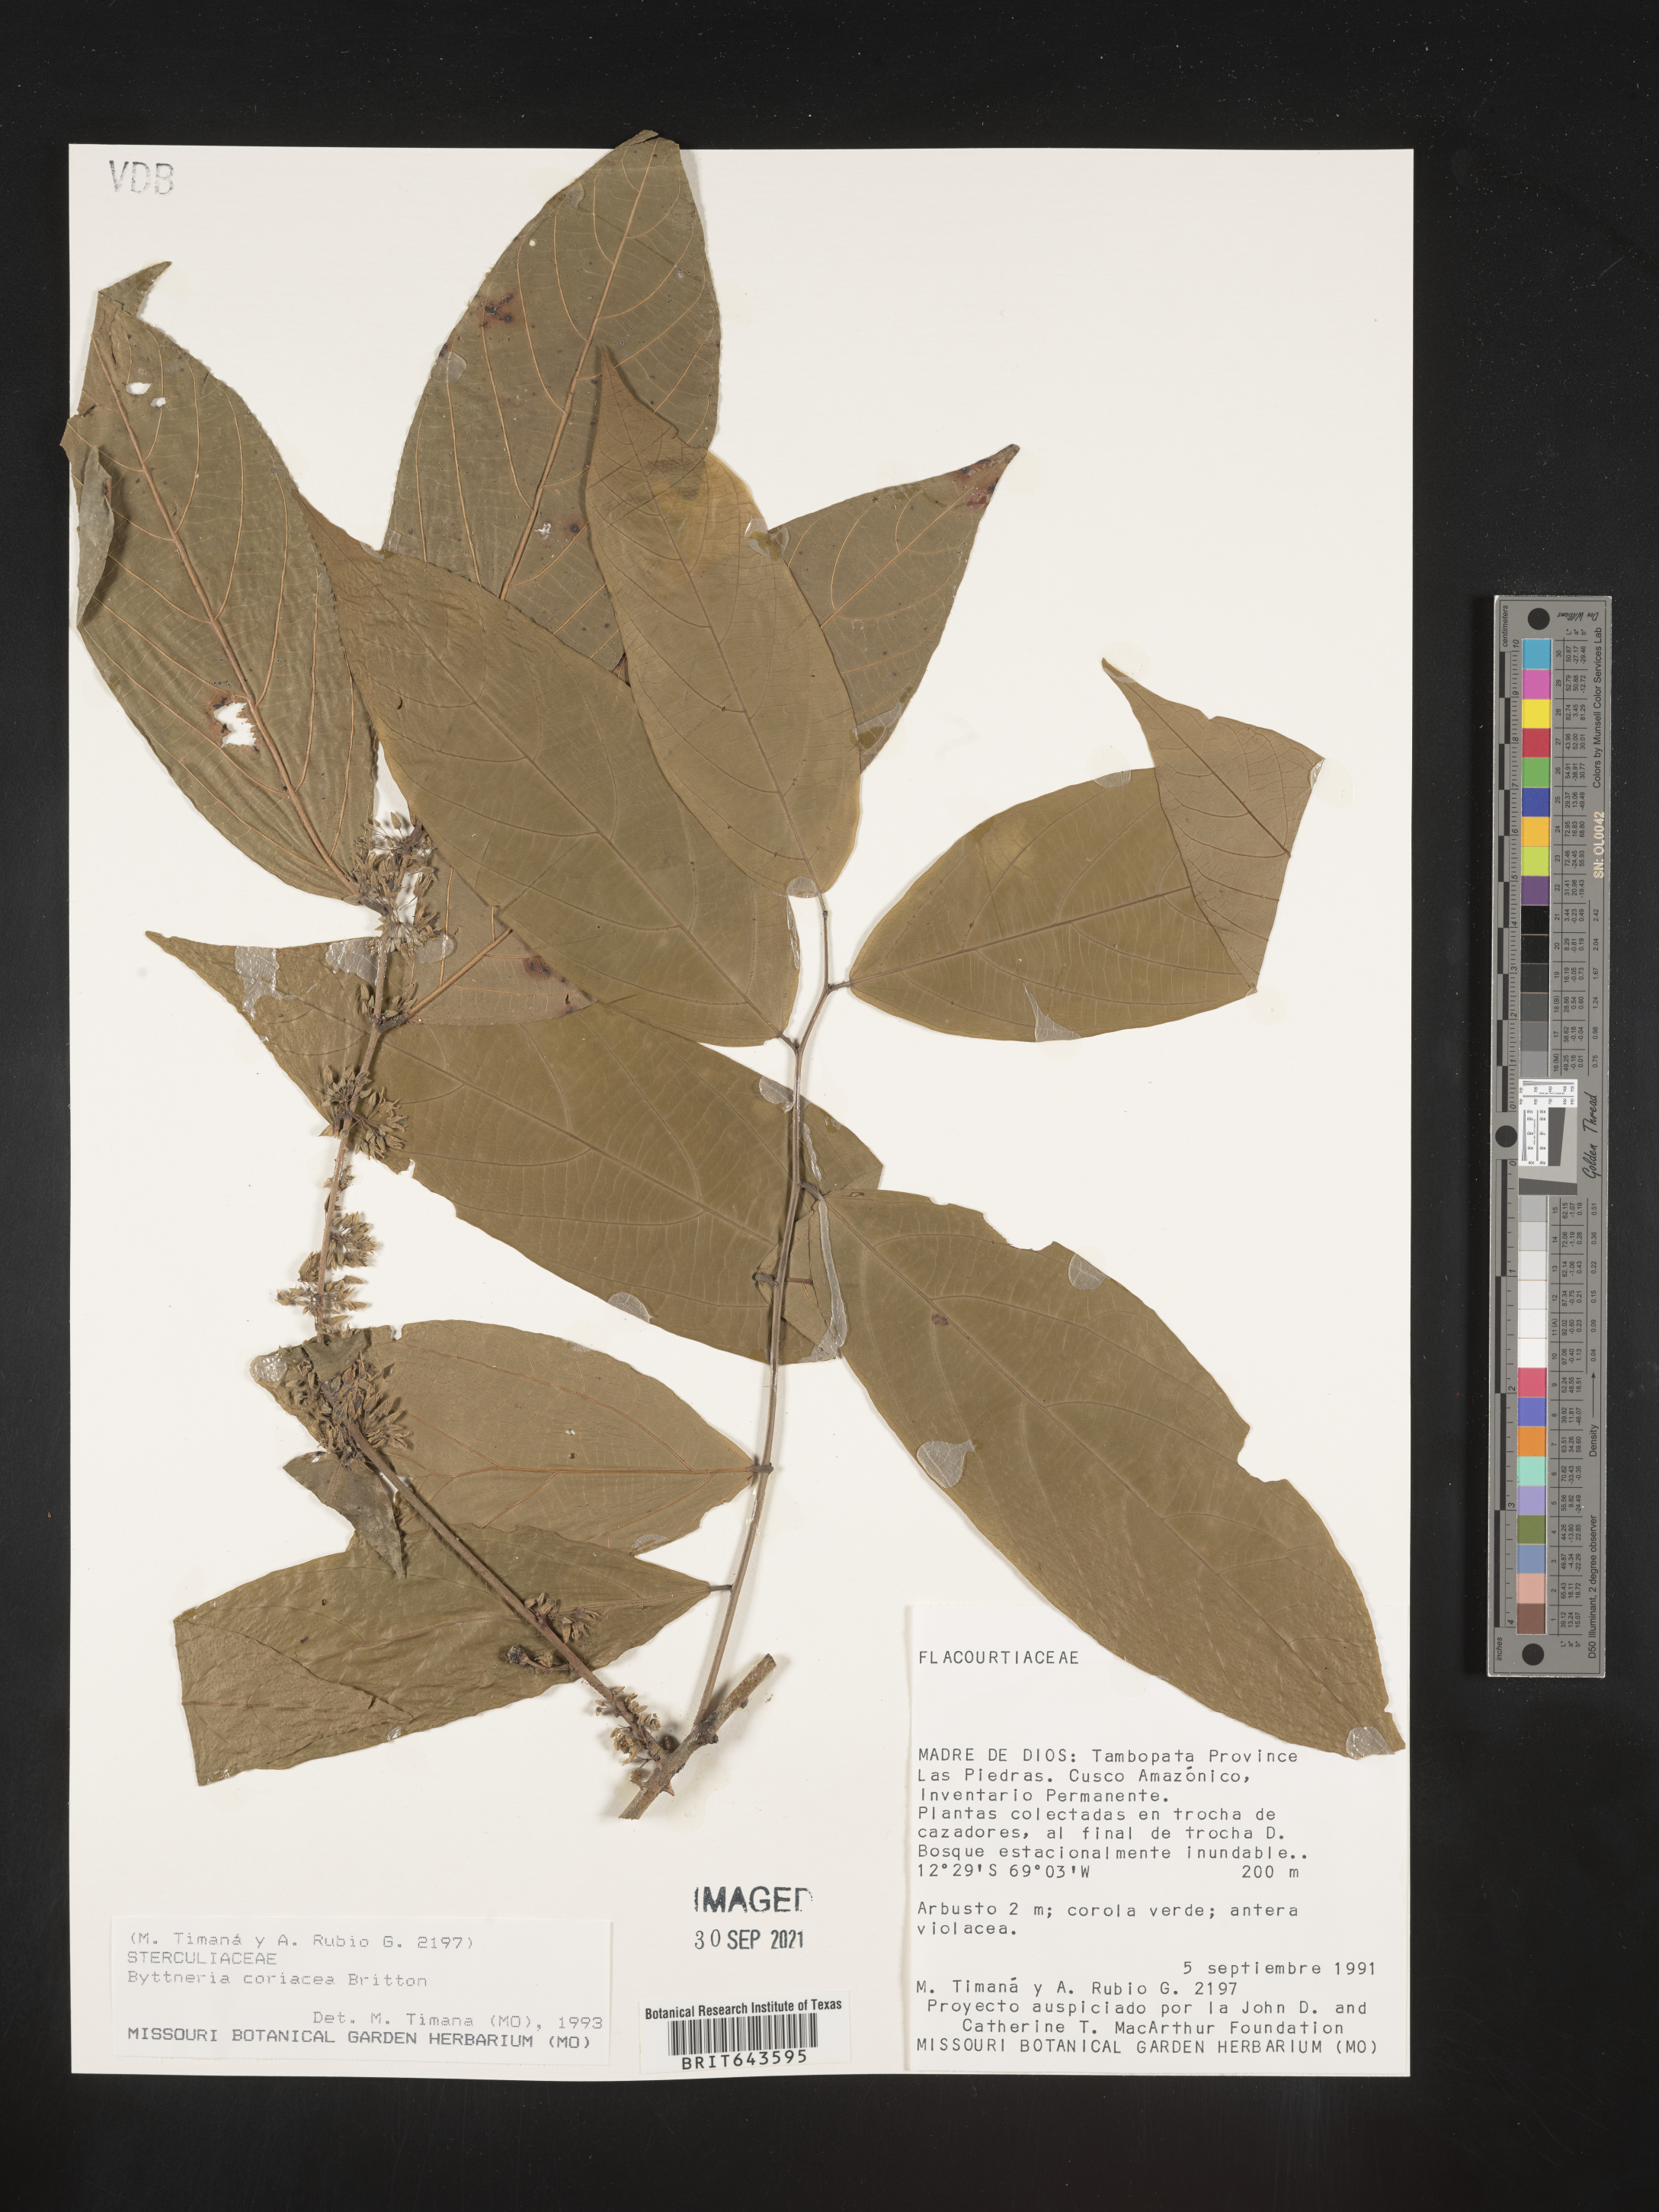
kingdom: Plantae
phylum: Tracheophyta
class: Magnoliopsida
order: Malvales
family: Malvaceae
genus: Byttneria
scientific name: Byttneria
